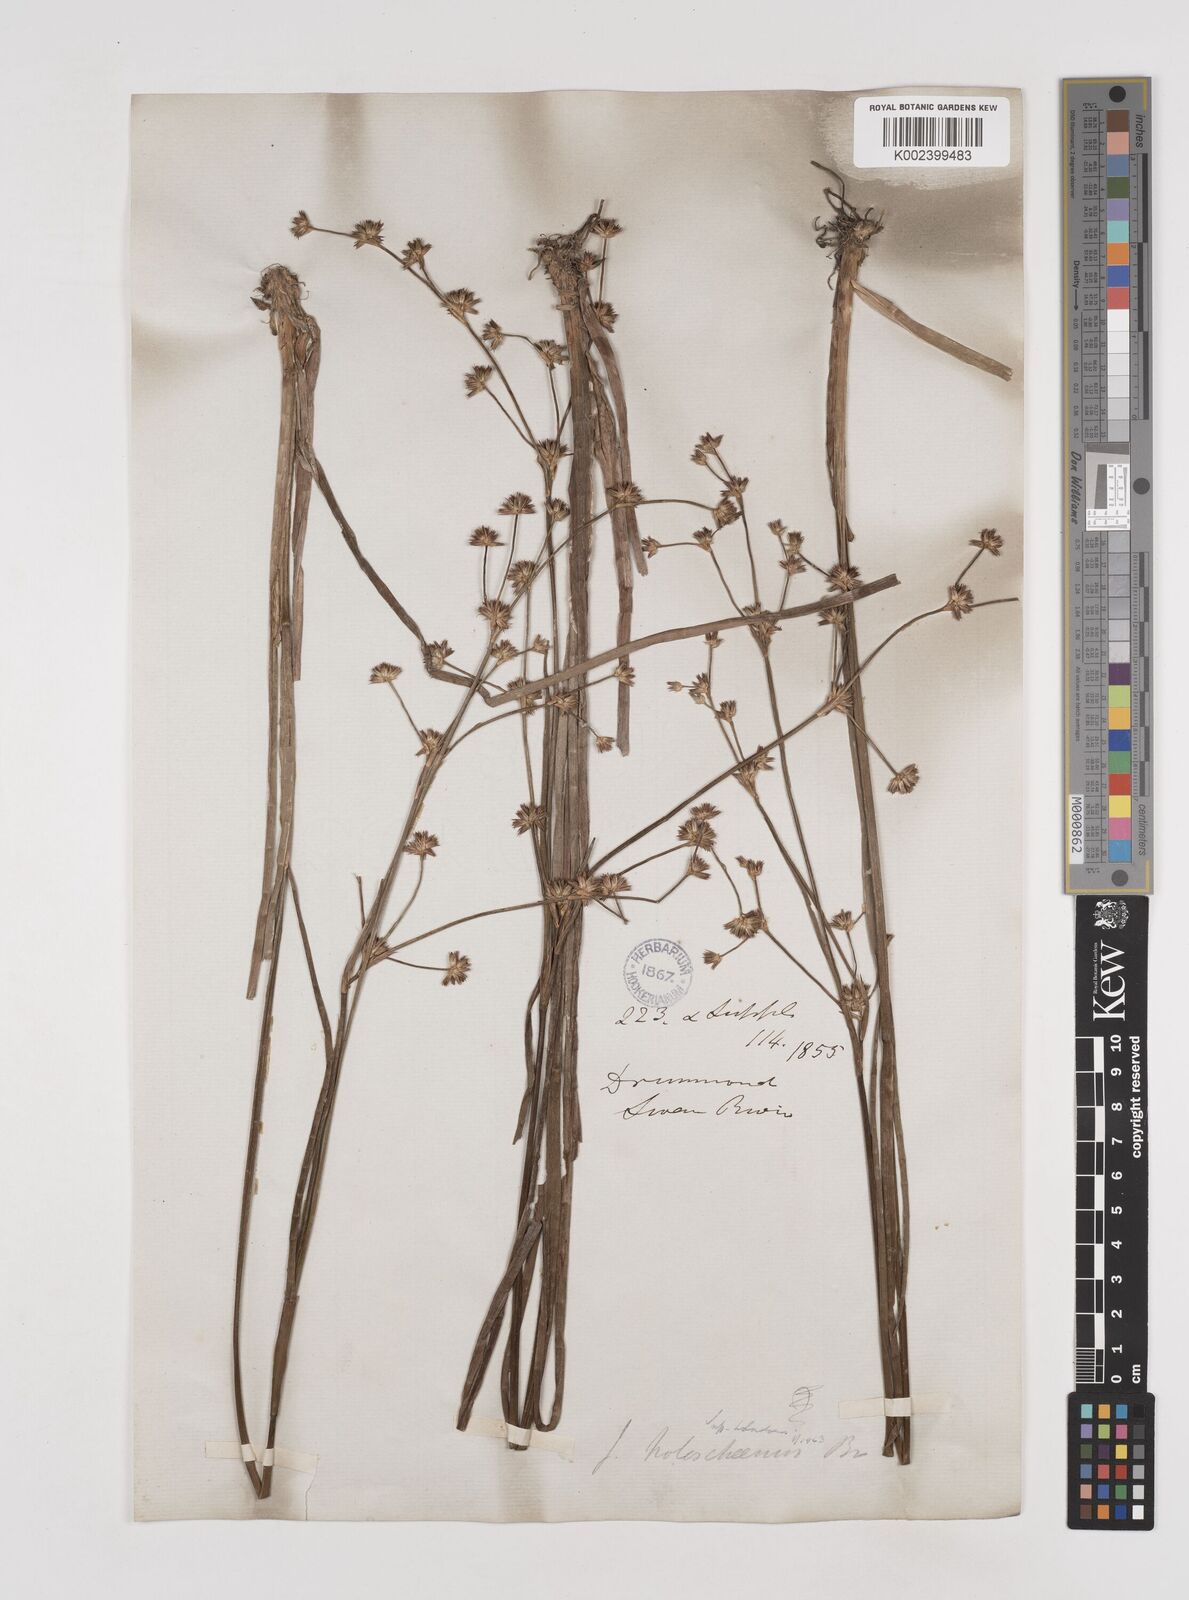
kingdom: Plantae
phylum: Tracheophyta
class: Liliopsida
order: Poales
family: Juncaceae
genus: Juncus
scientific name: Juncus holoschoenus
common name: Joint-leaf rush
